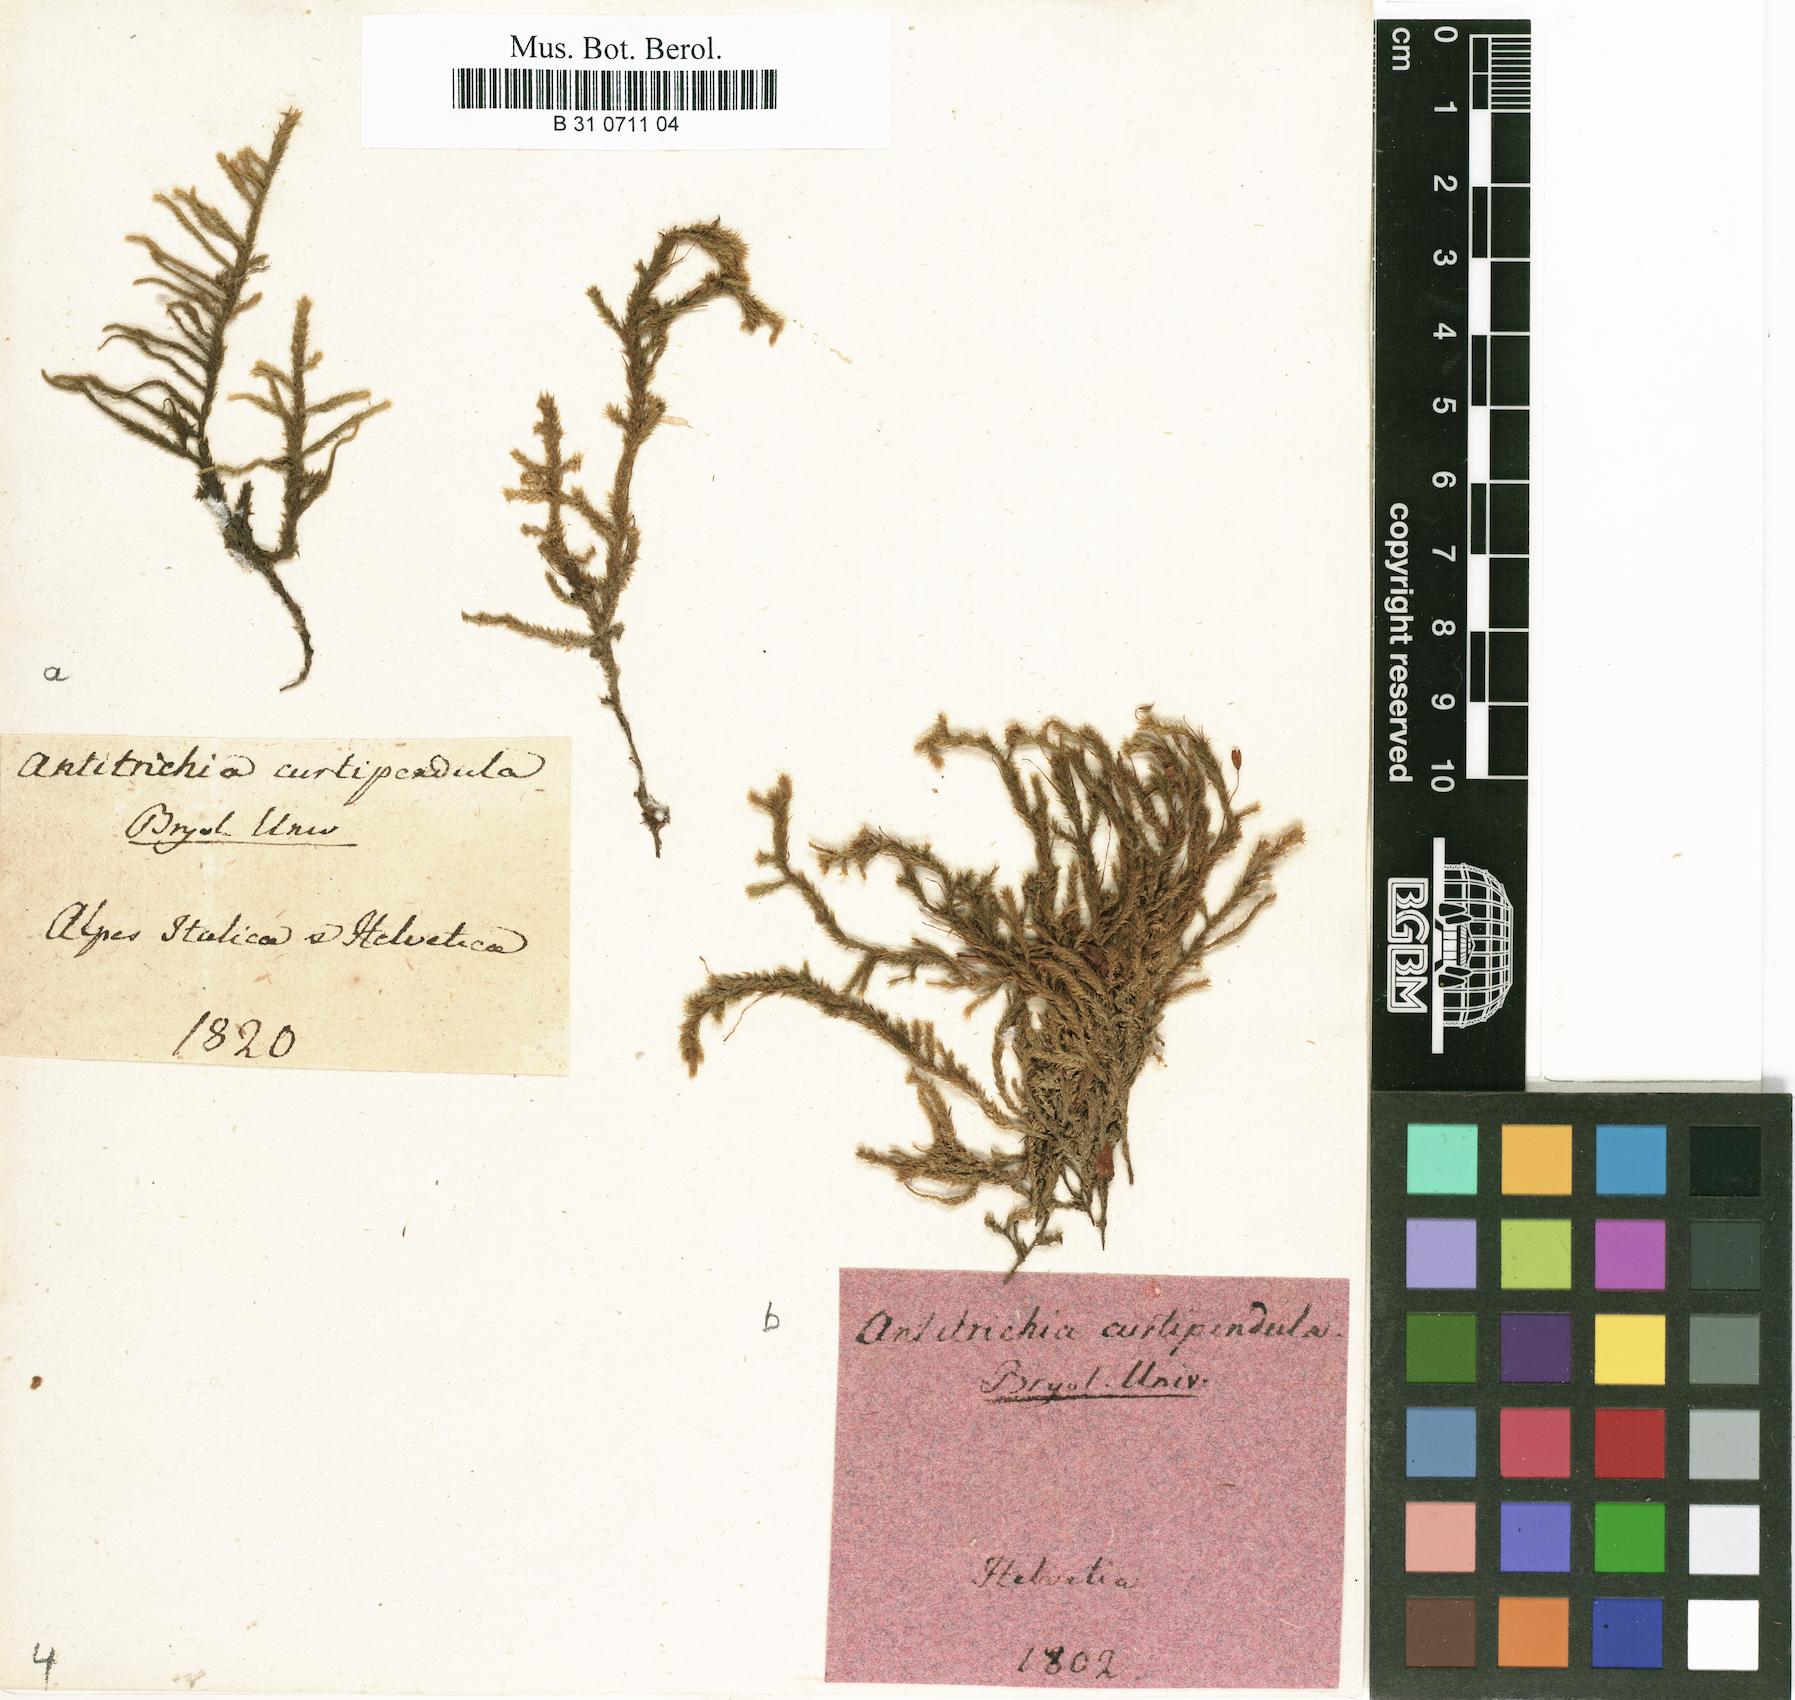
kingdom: Plantae
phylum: Bryophyta
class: Bryopsida
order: Hypnales
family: Antitrichiaceae
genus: Antitrichia
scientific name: Antitrichia curtipendula
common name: Pendulous wing-moss
